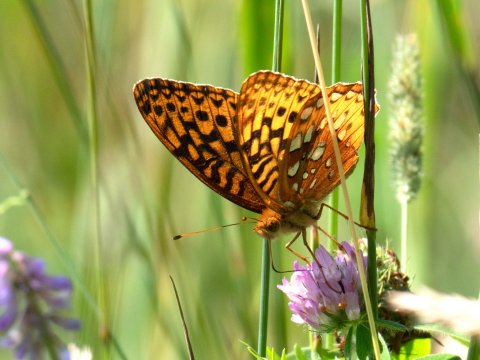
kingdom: Animalia
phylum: Arthropoda
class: Insecta
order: Lepidoptera
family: Nymphalidae
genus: Speyeria
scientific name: Speyeria cybele
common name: Great Spangled Fritillary
